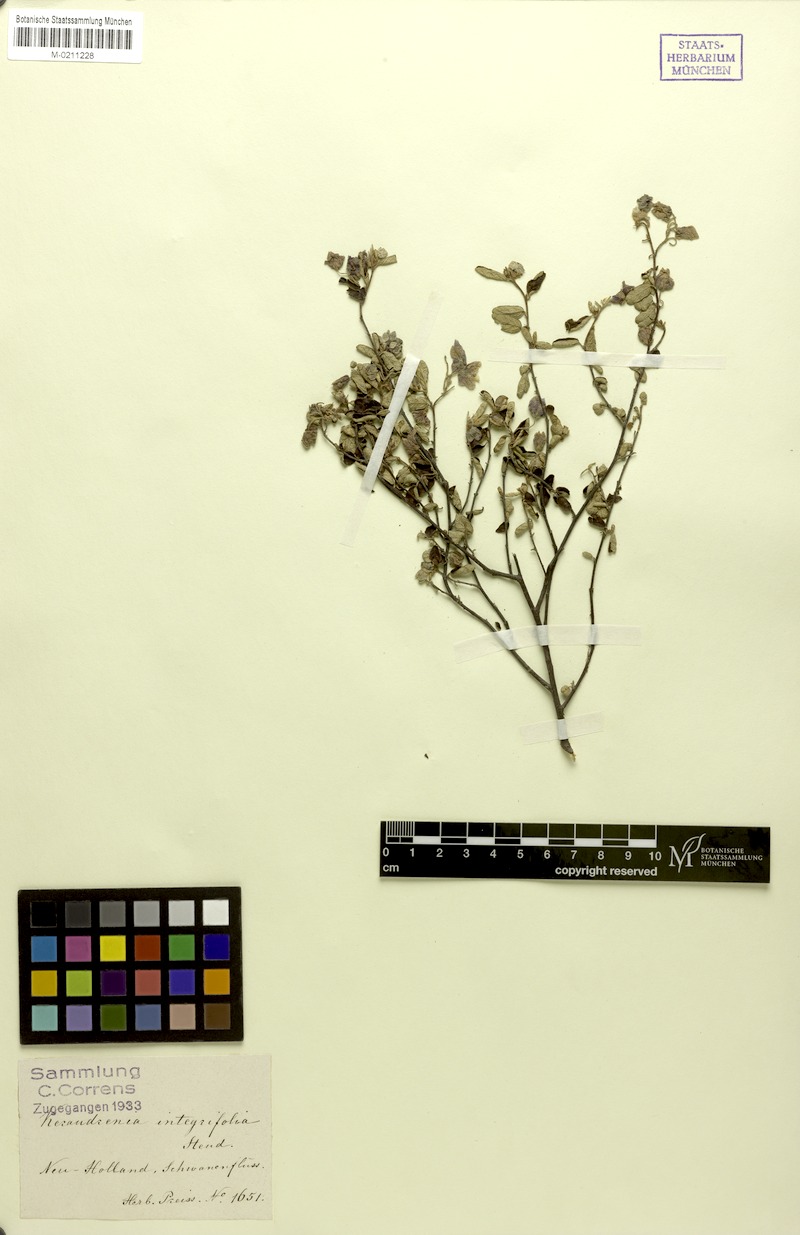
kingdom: Plantae
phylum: Tracheophyta
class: Magnoliopsida
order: Malvales
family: Malvaceae
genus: Seringia
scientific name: Seringia integrifolia
